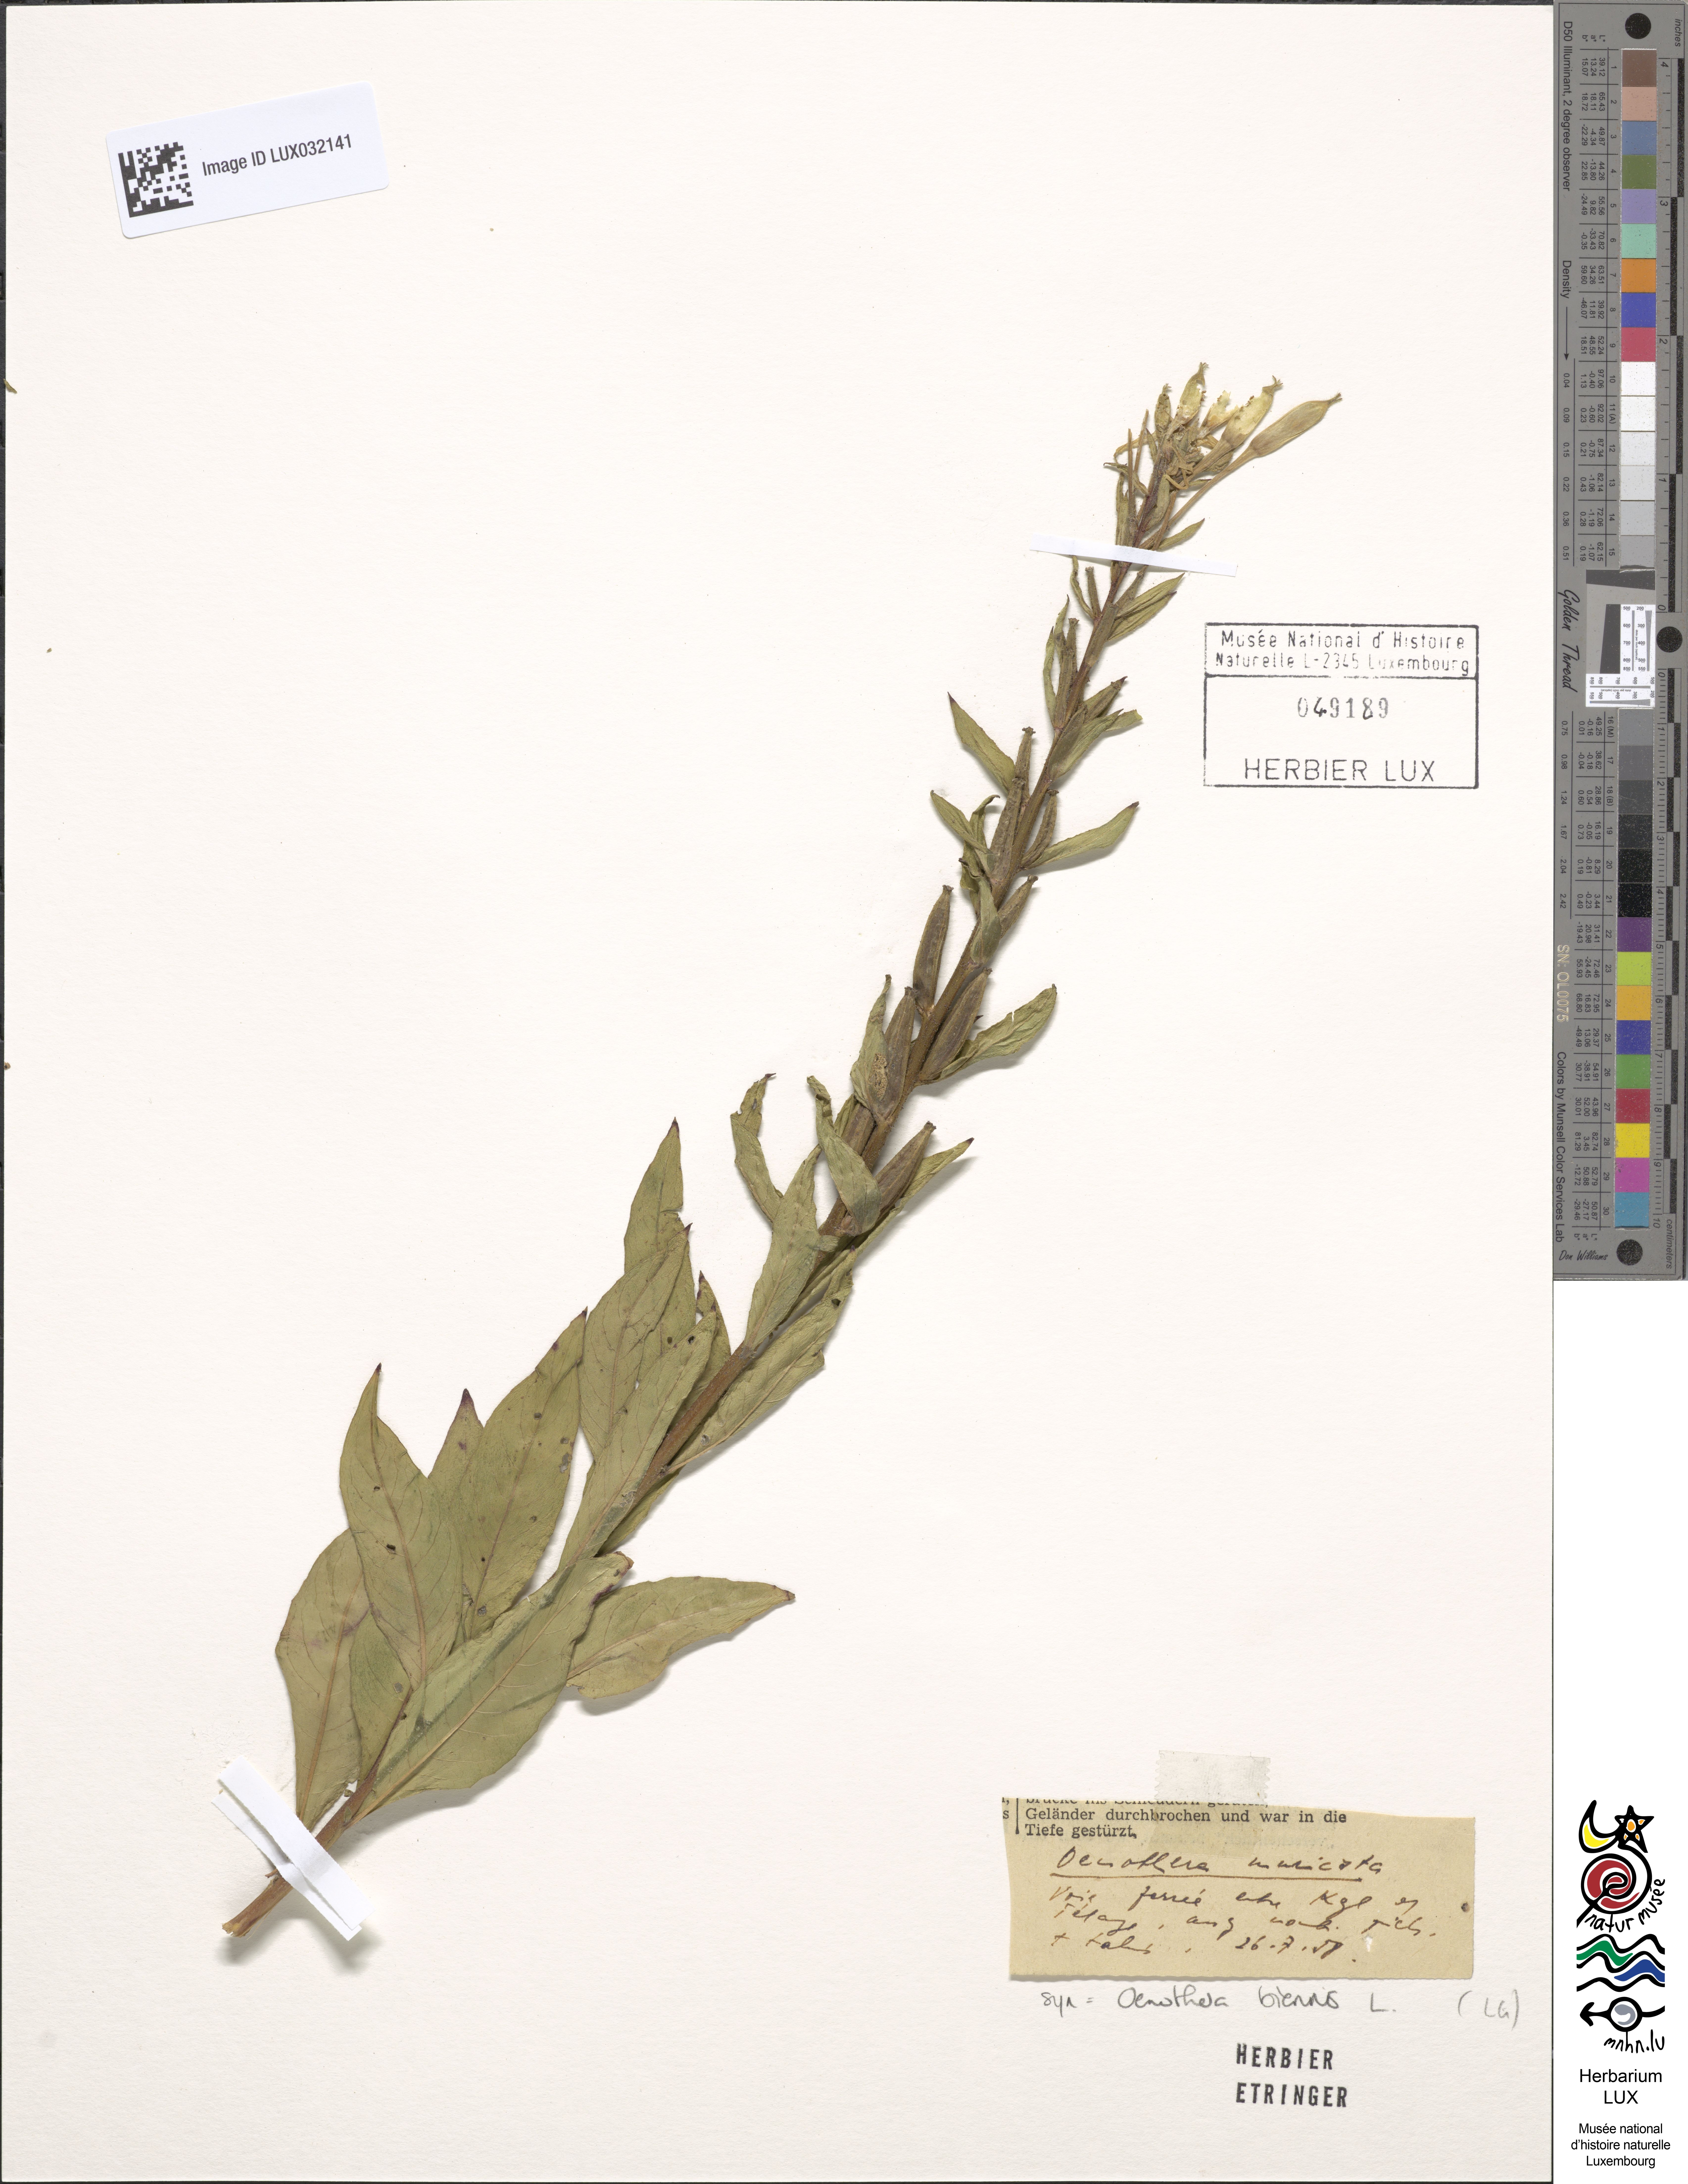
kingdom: Plantae
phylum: Tracheophyta
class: Magnoliopsida
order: Myrtales
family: Onagraceae
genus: Oenothera
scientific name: Oenothera biennis
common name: Common evening-primrose
